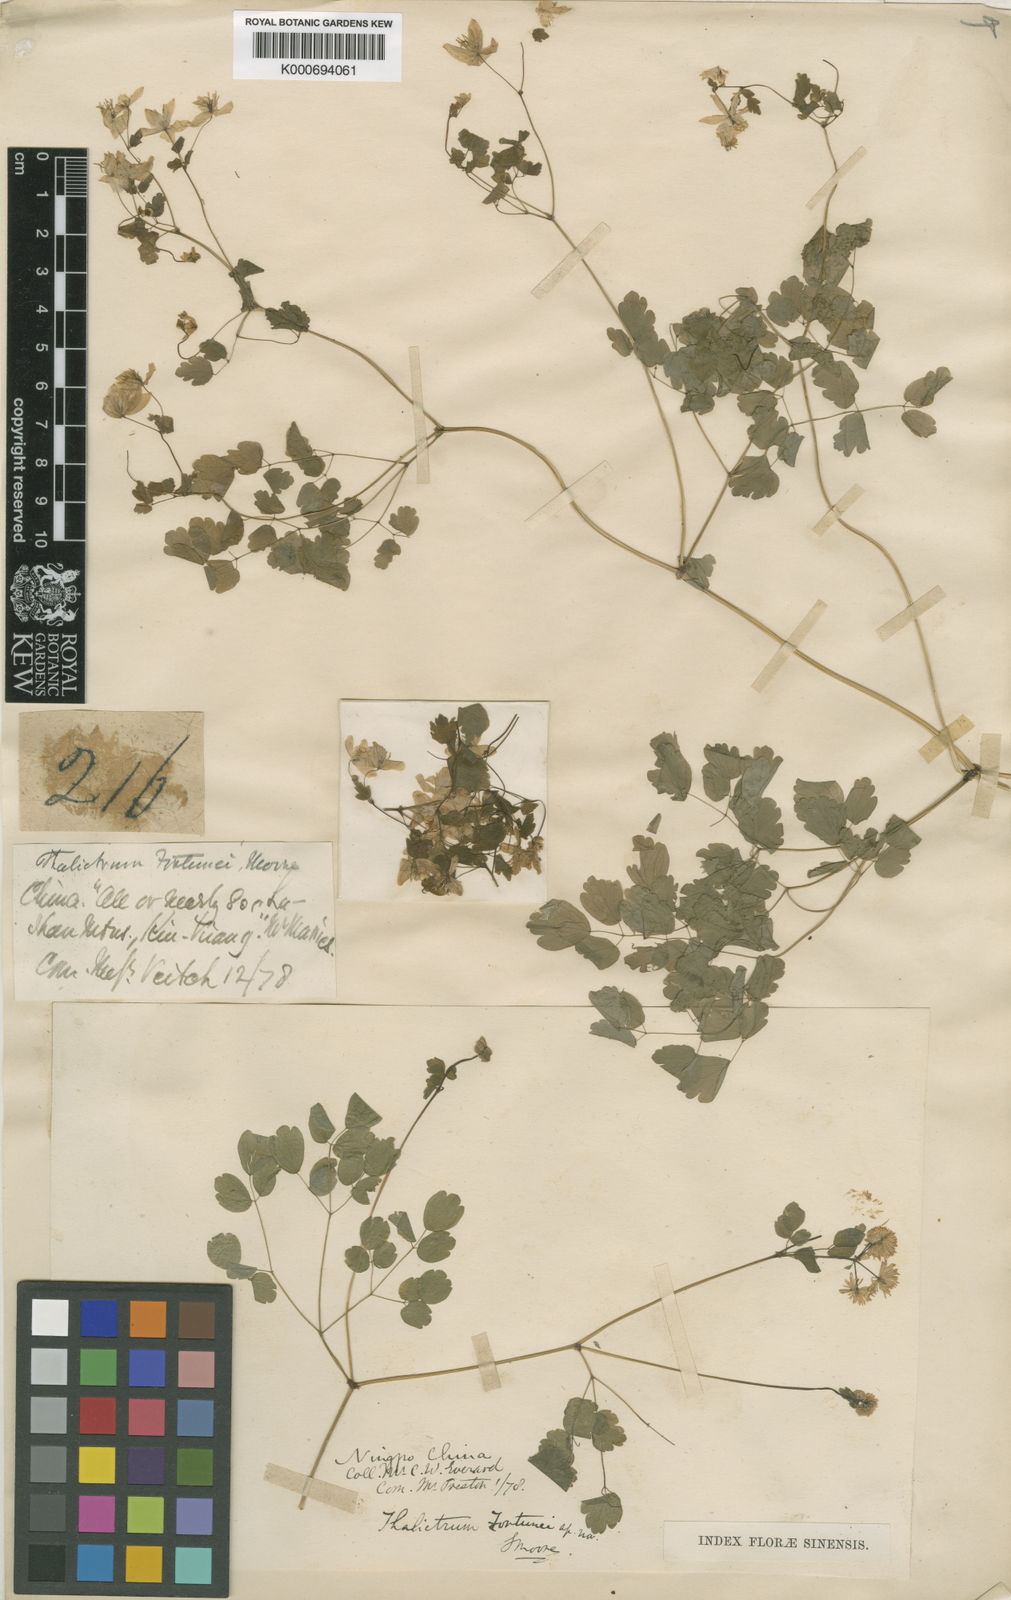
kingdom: Plantae
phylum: Tracheophyta
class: Magnoliopsida
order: Ranunculales
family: Ranunculaceae
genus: Thalictrum
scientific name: Thalictrum fortunei
